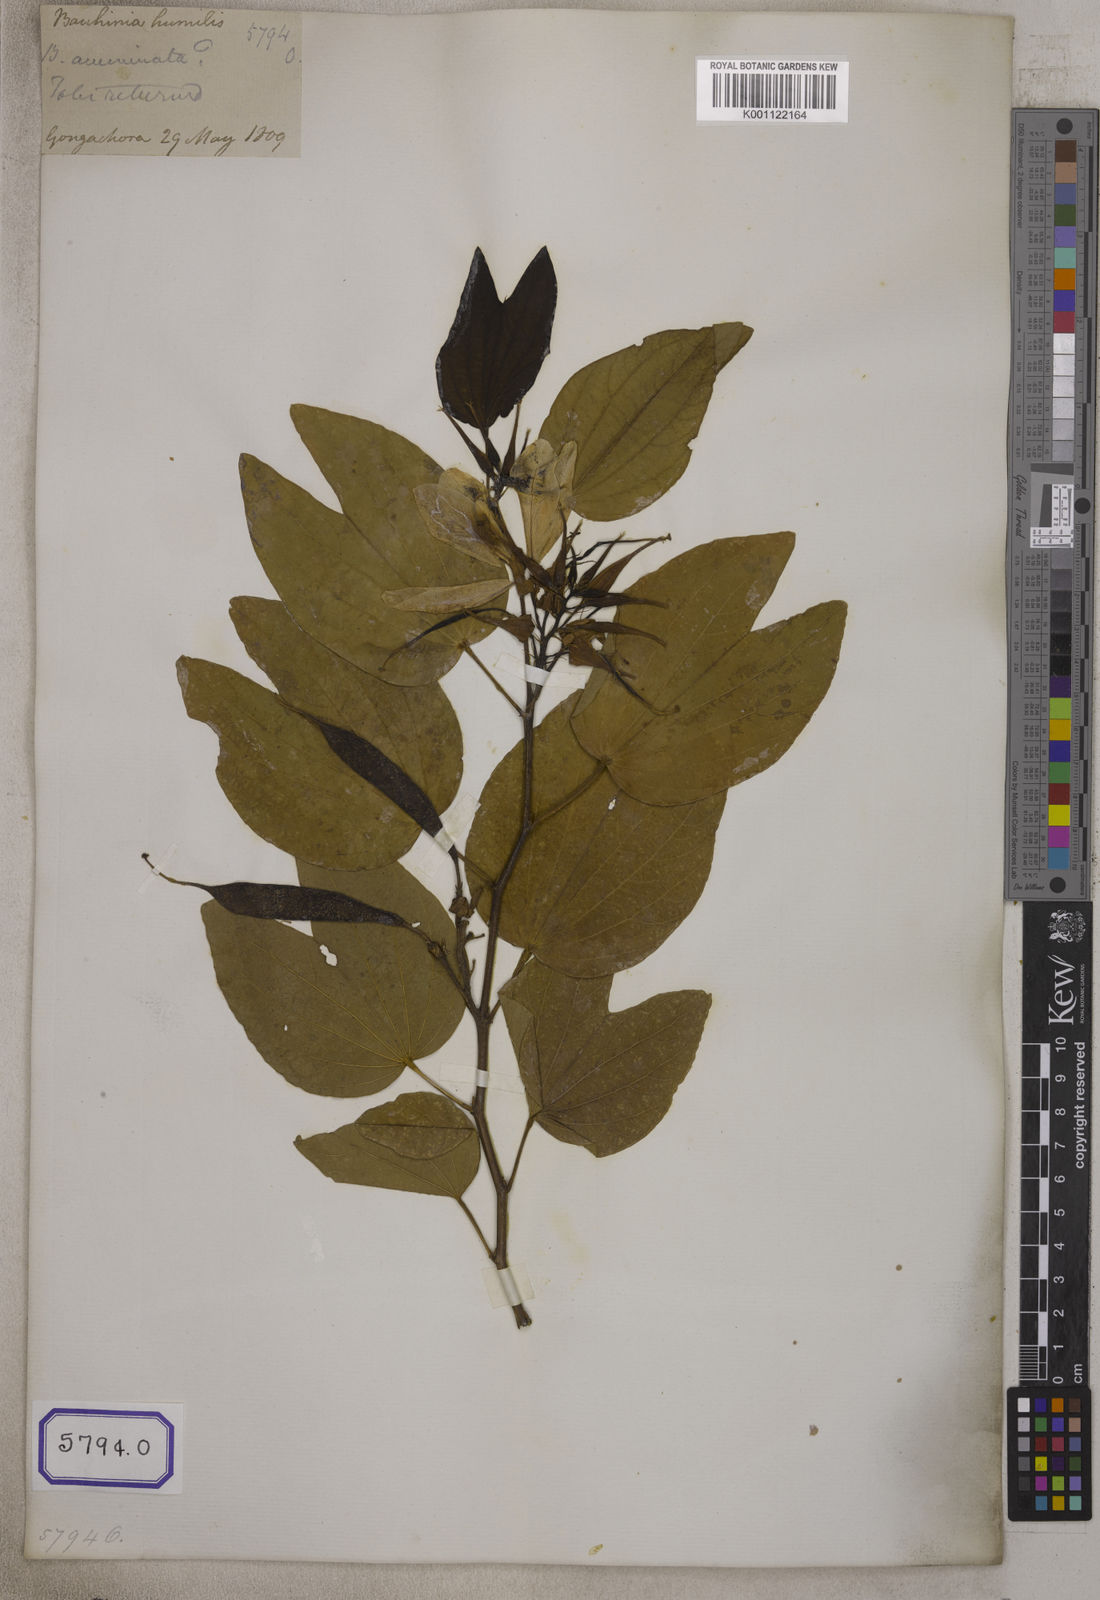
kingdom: Plantae
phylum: Tracheophyta
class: Magnoliopsida
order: Fabales
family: Fabaceae
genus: Bauhinia
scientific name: Bauhinia acuminata
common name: Dwarf white bauhinia
